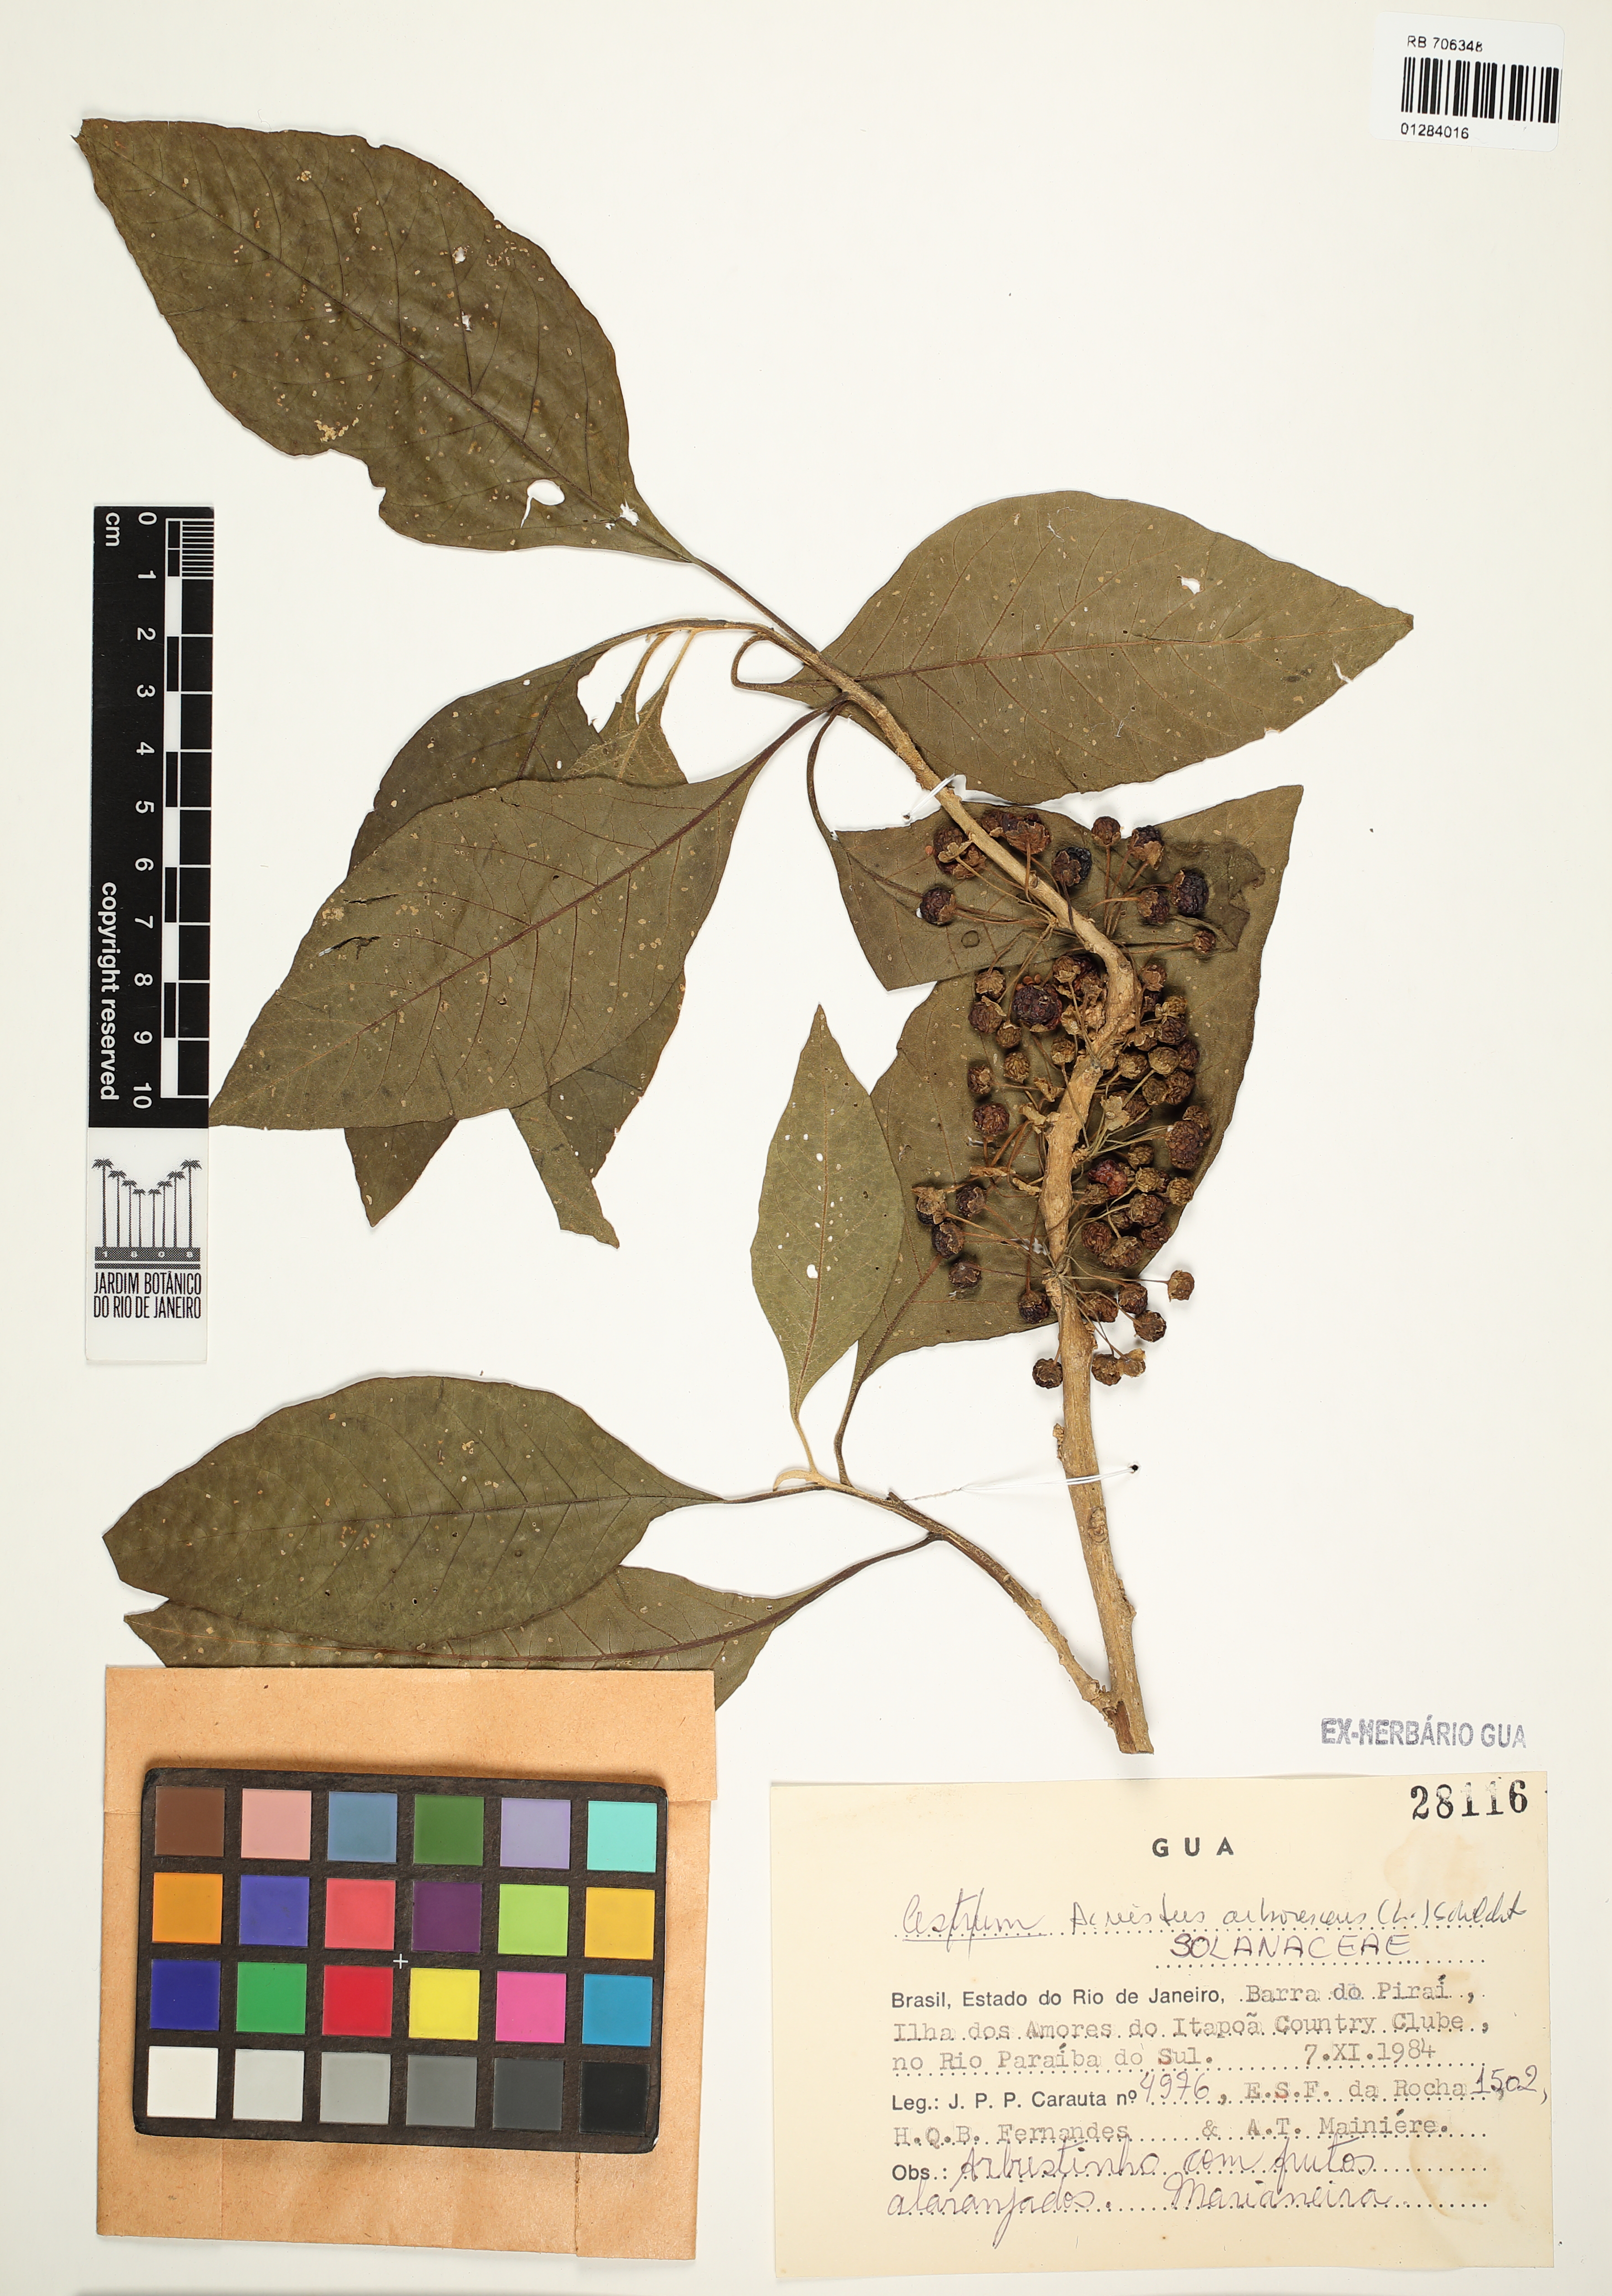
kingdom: Plantae
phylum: Tracheophyta
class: Magnoliopsida
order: Solanales
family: Solanaceae
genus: Iochroma
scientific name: Iochroma arborescens
